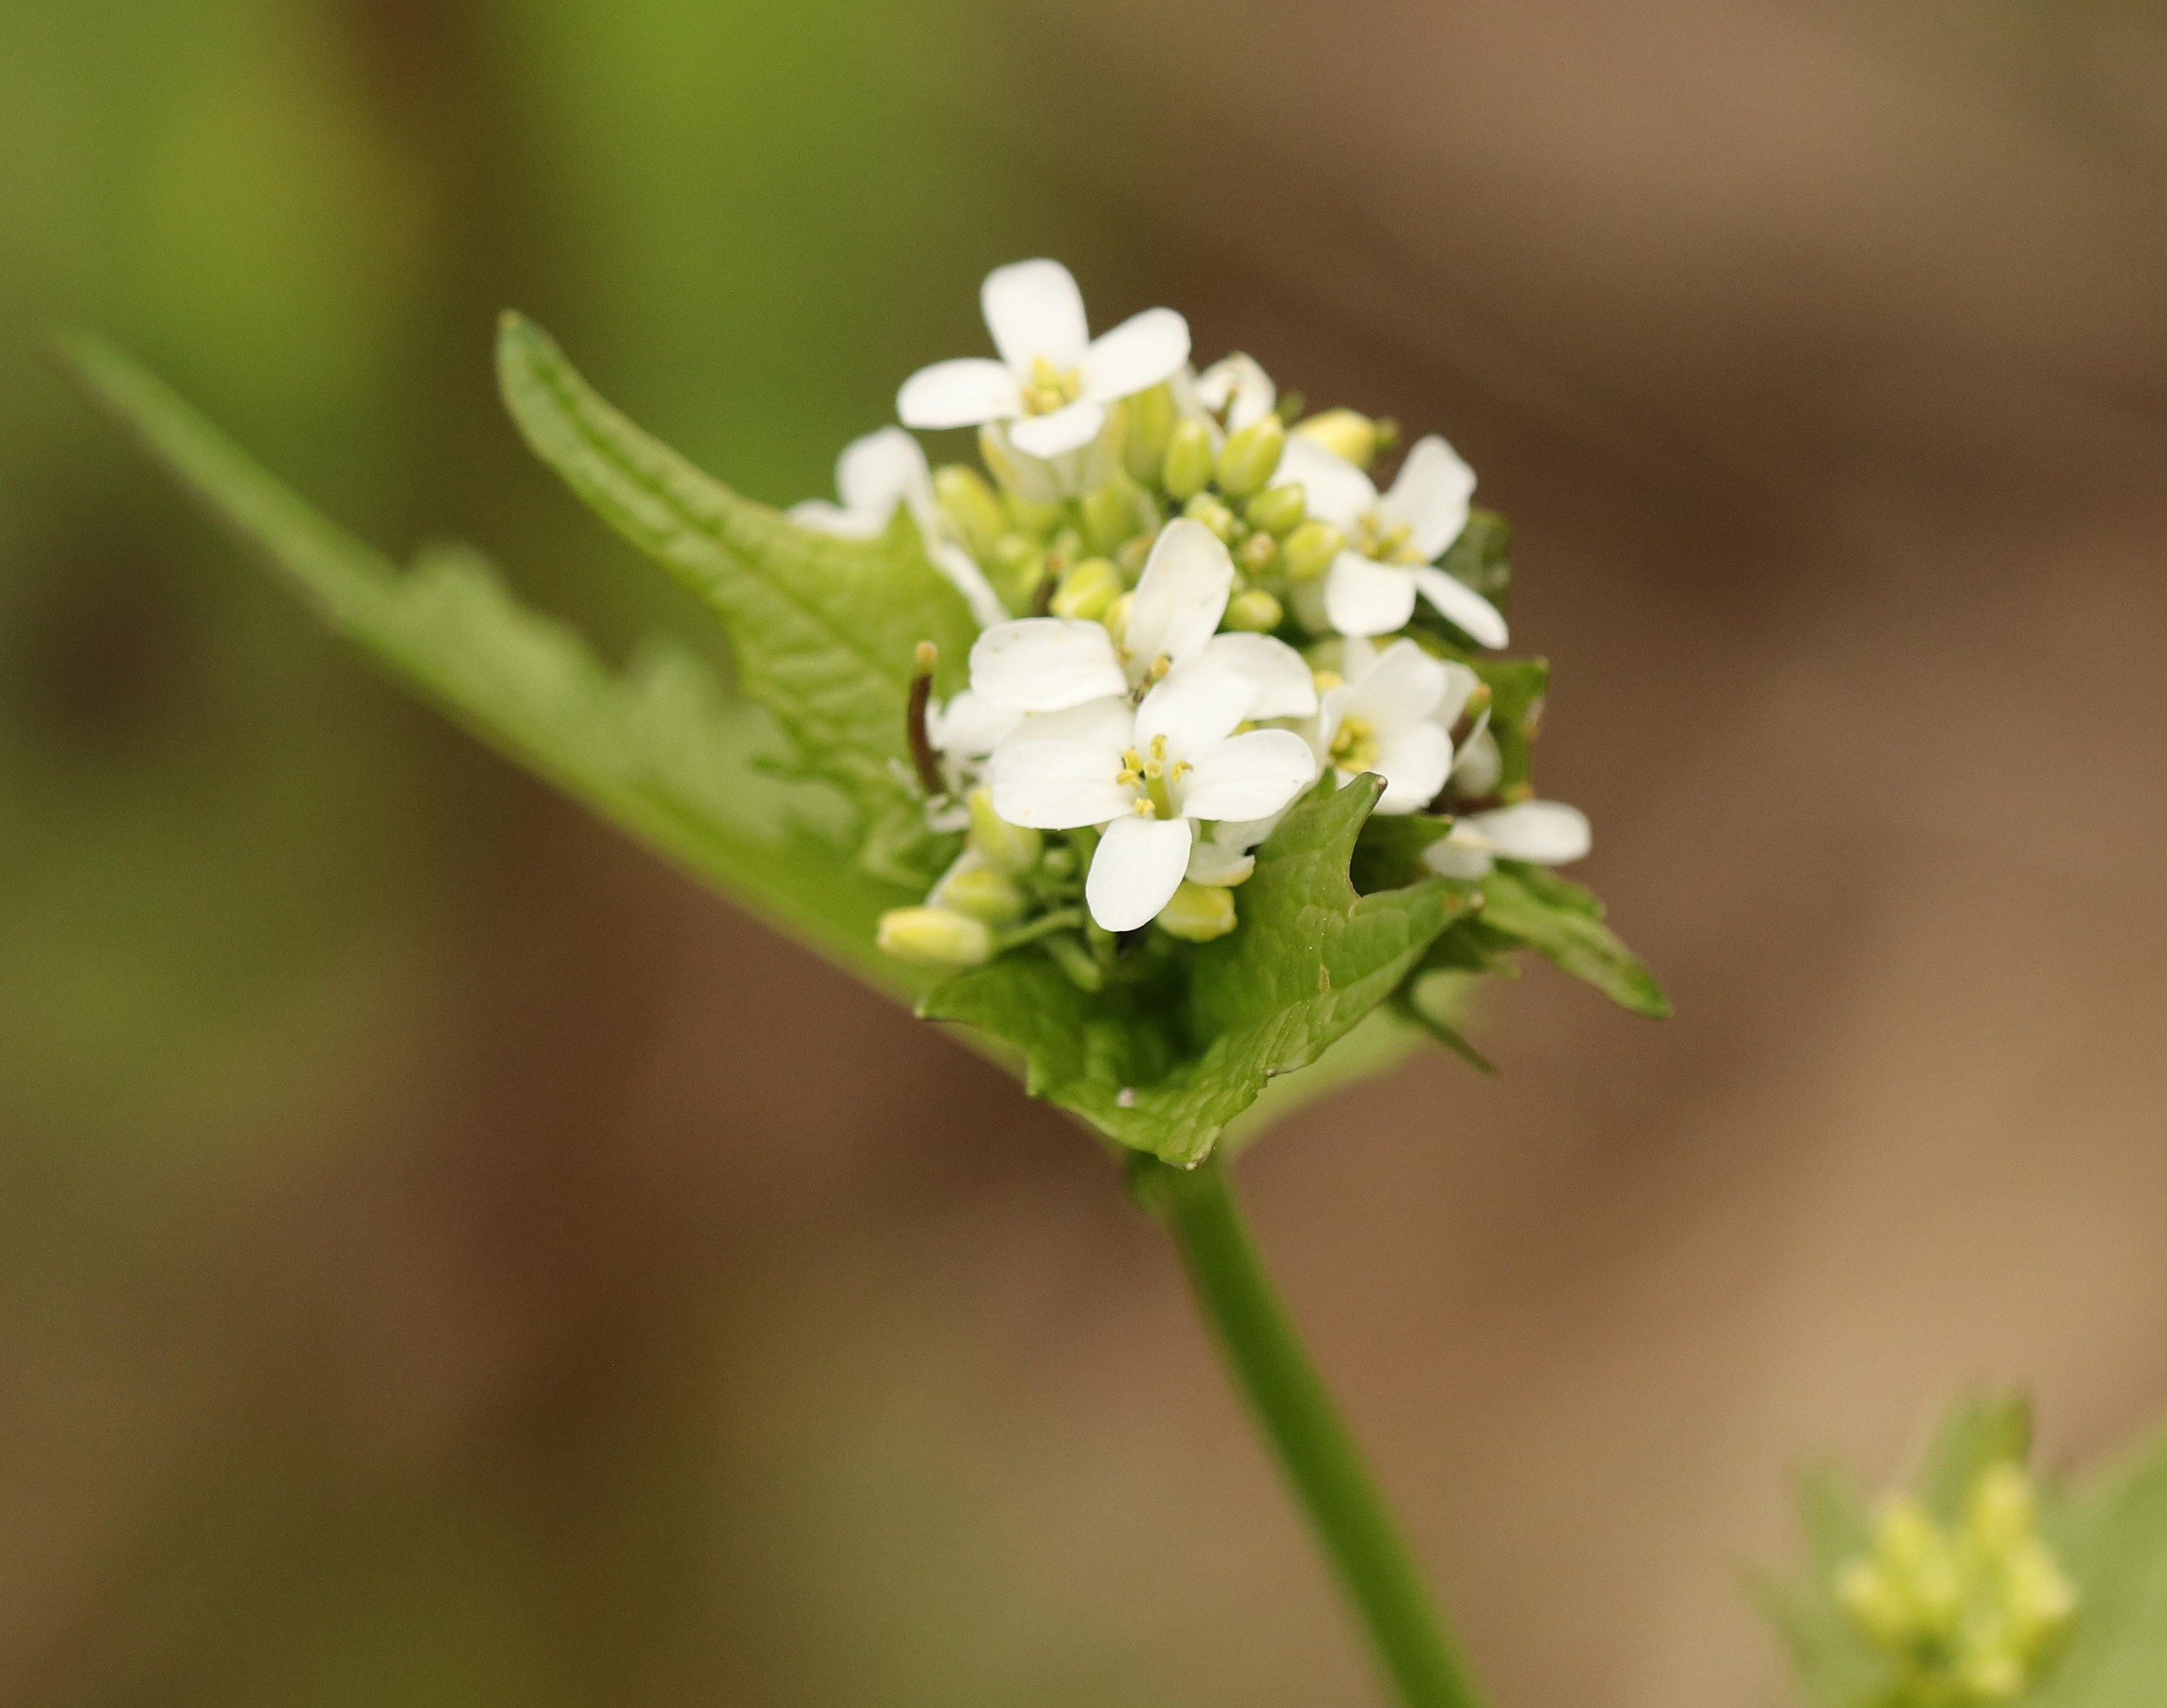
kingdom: Plantae
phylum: Tracheophyta
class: Magnoliopsida
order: Brassicales
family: Brassicaceae
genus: Alliaria
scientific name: Alliaria petiolata
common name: Løgkarse
